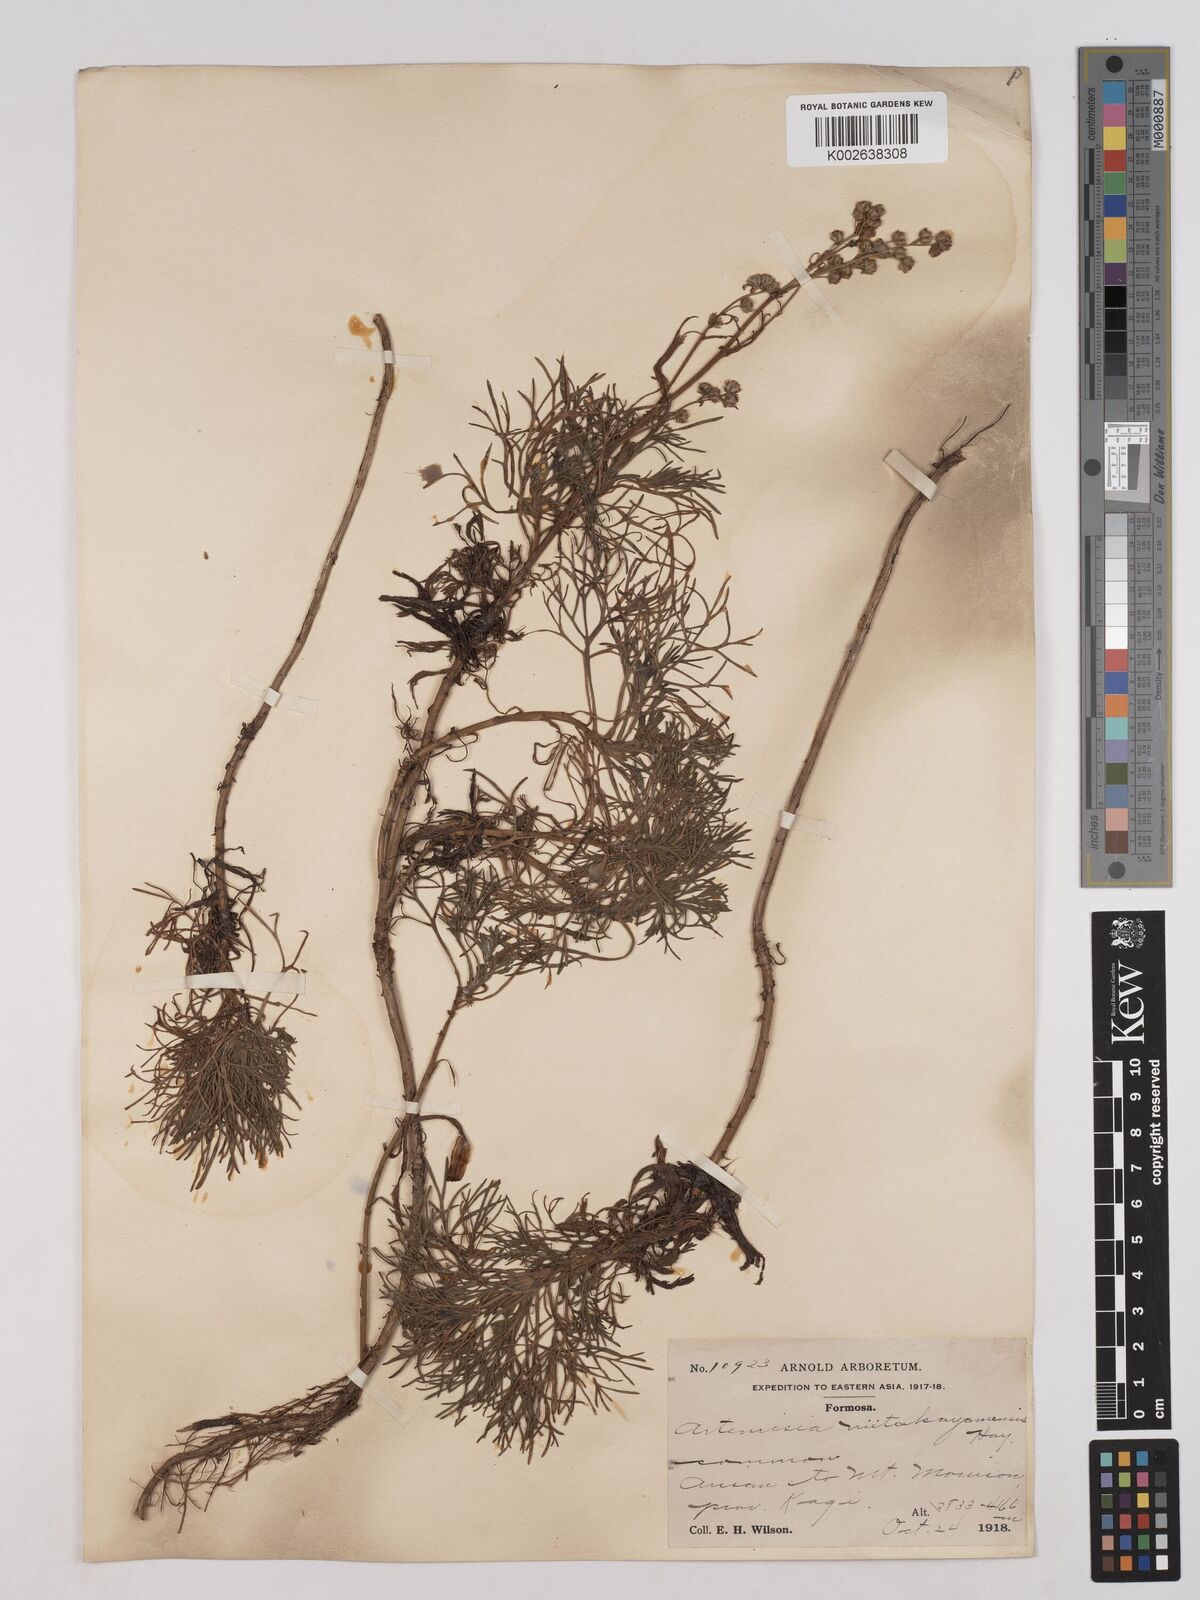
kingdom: Plantae
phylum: Tracheophyta
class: Magnoliopsida
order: Asterales
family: Asteraceae
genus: Artemisia
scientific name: Artemisia niitakayamensis
